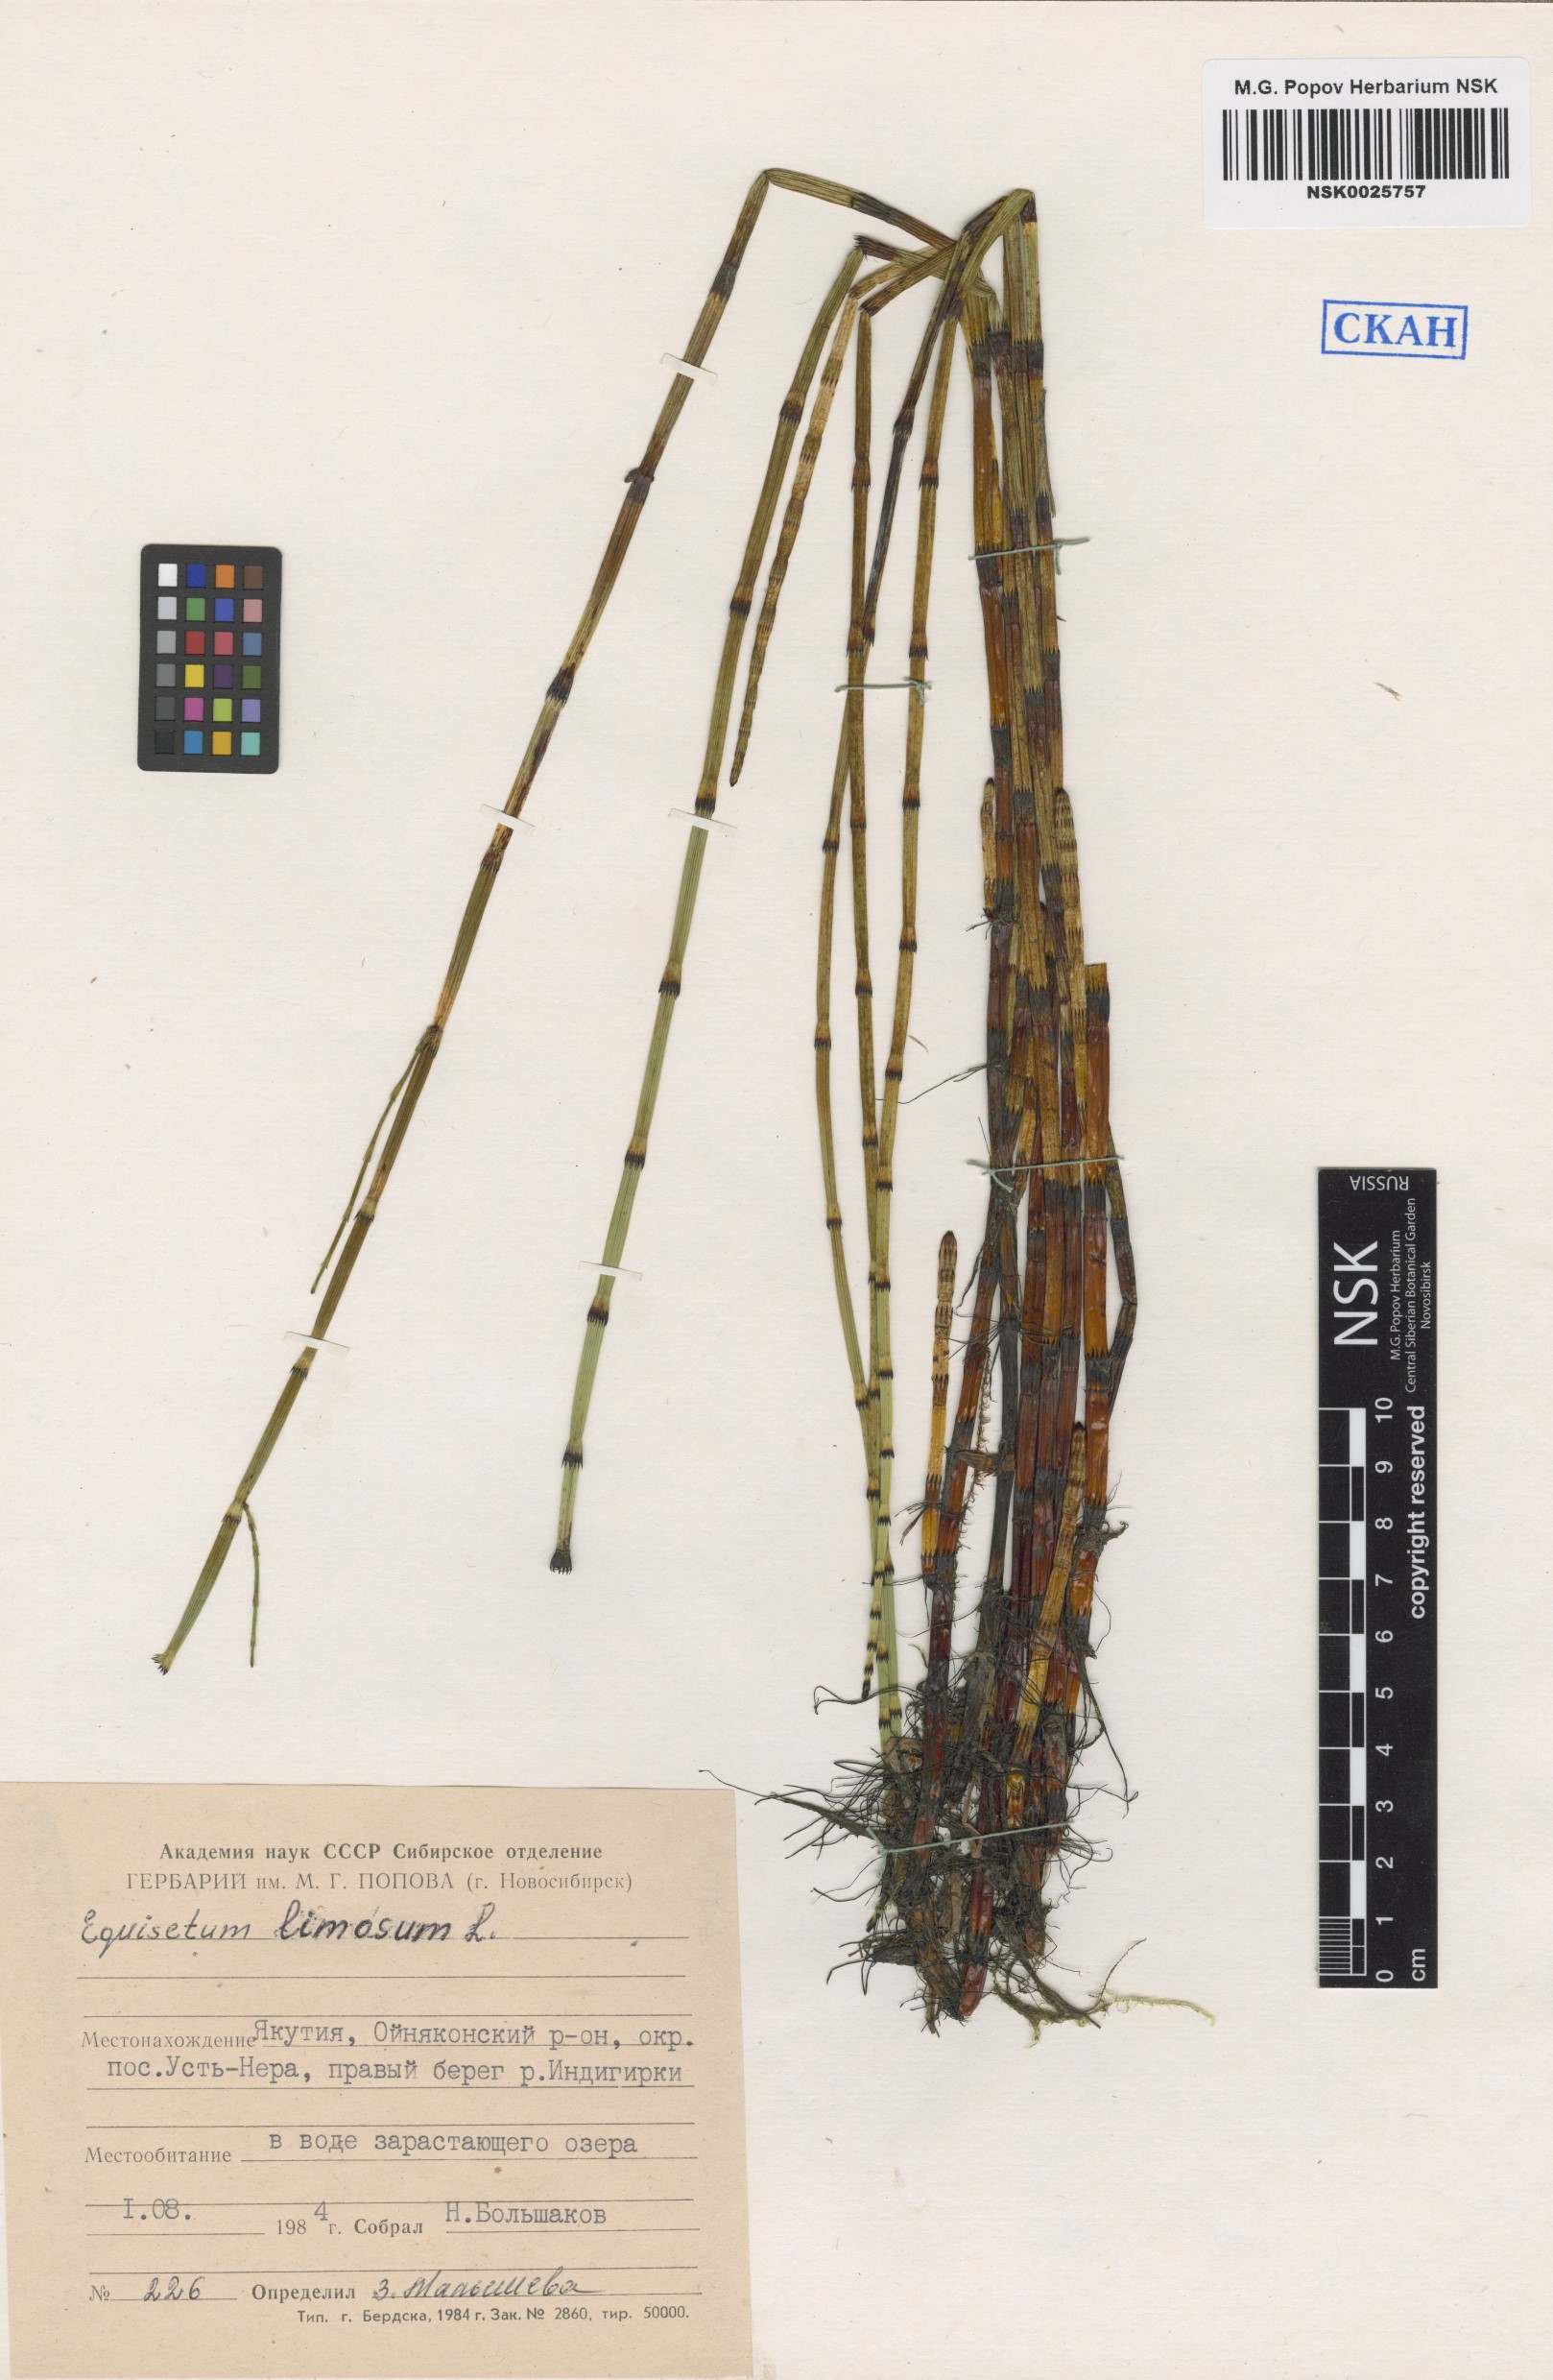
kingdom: Plantae
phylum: Tracheophyta
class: Polypodiopsida
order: Equisetales
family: Equisetaceae
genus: Equisetum
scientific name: Equisetum fluviatile
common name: Water horsetail
